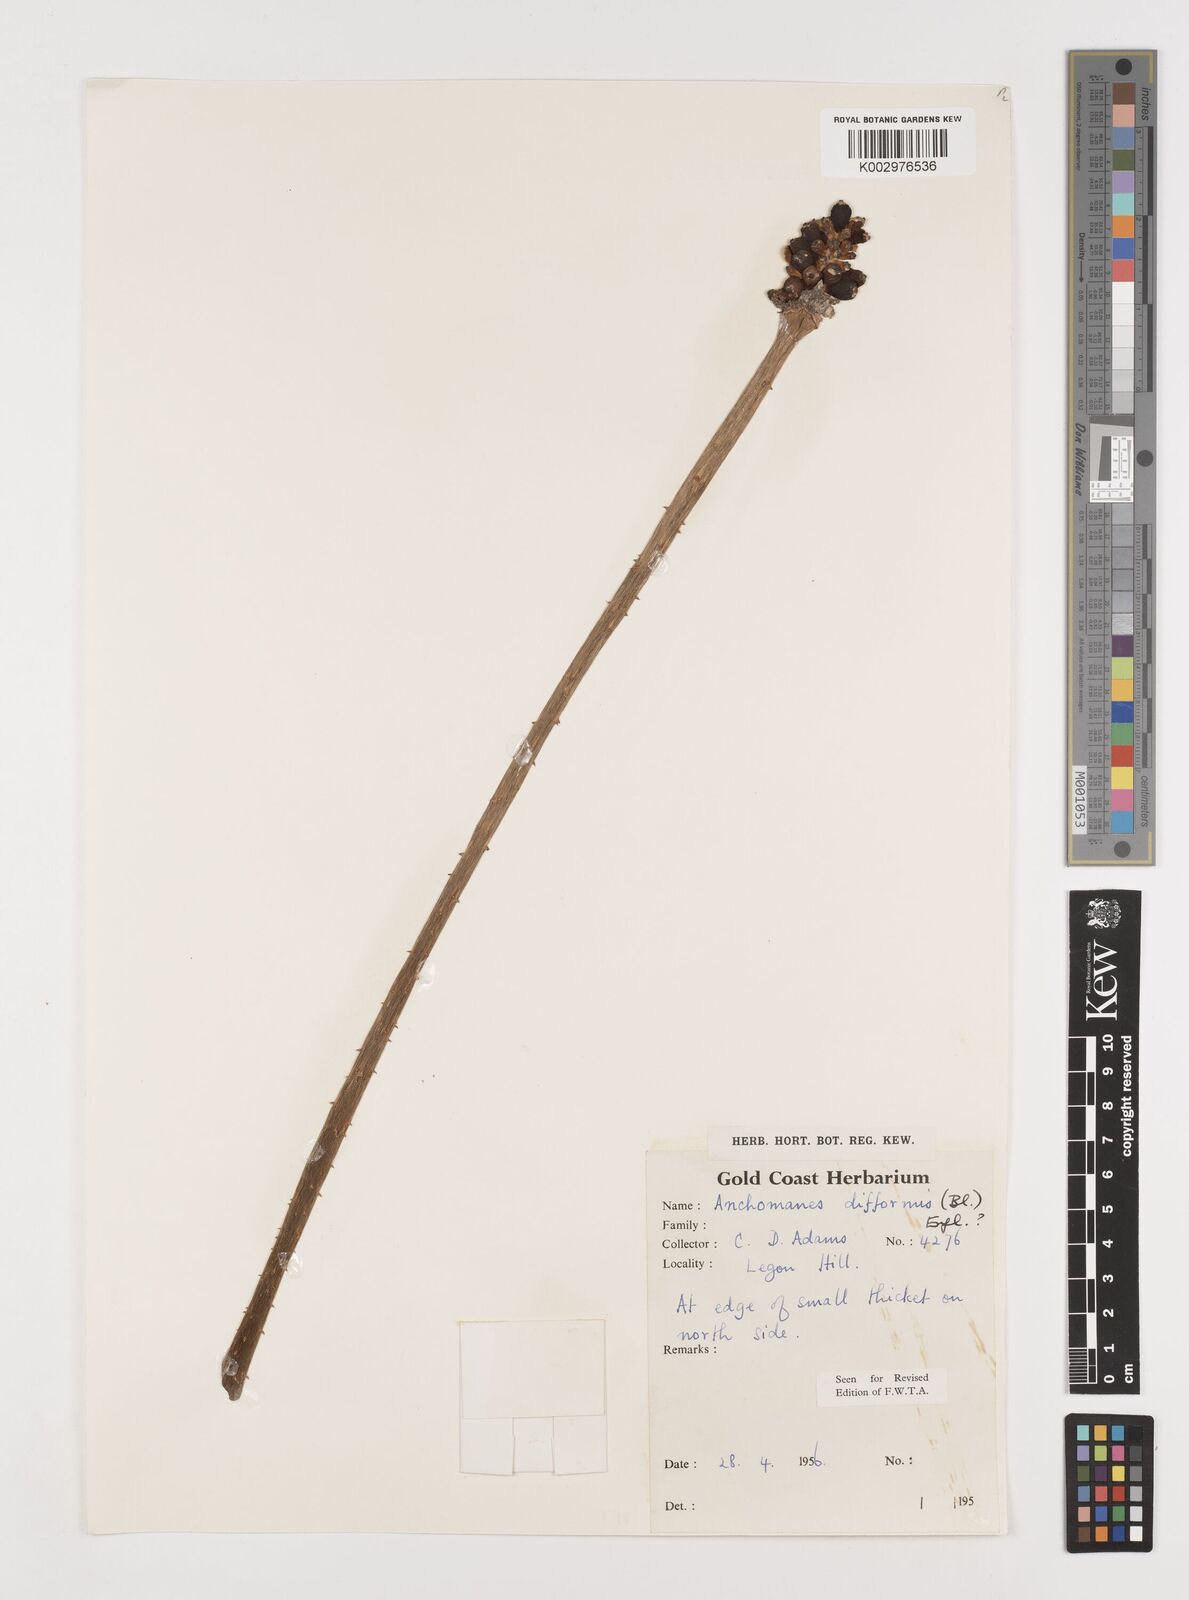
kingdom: Plantae
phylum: Tracheophyta
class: Liliopsida
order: Alismatales
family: Araceae
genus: Anchomanes
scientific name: Anchomanes difformis
